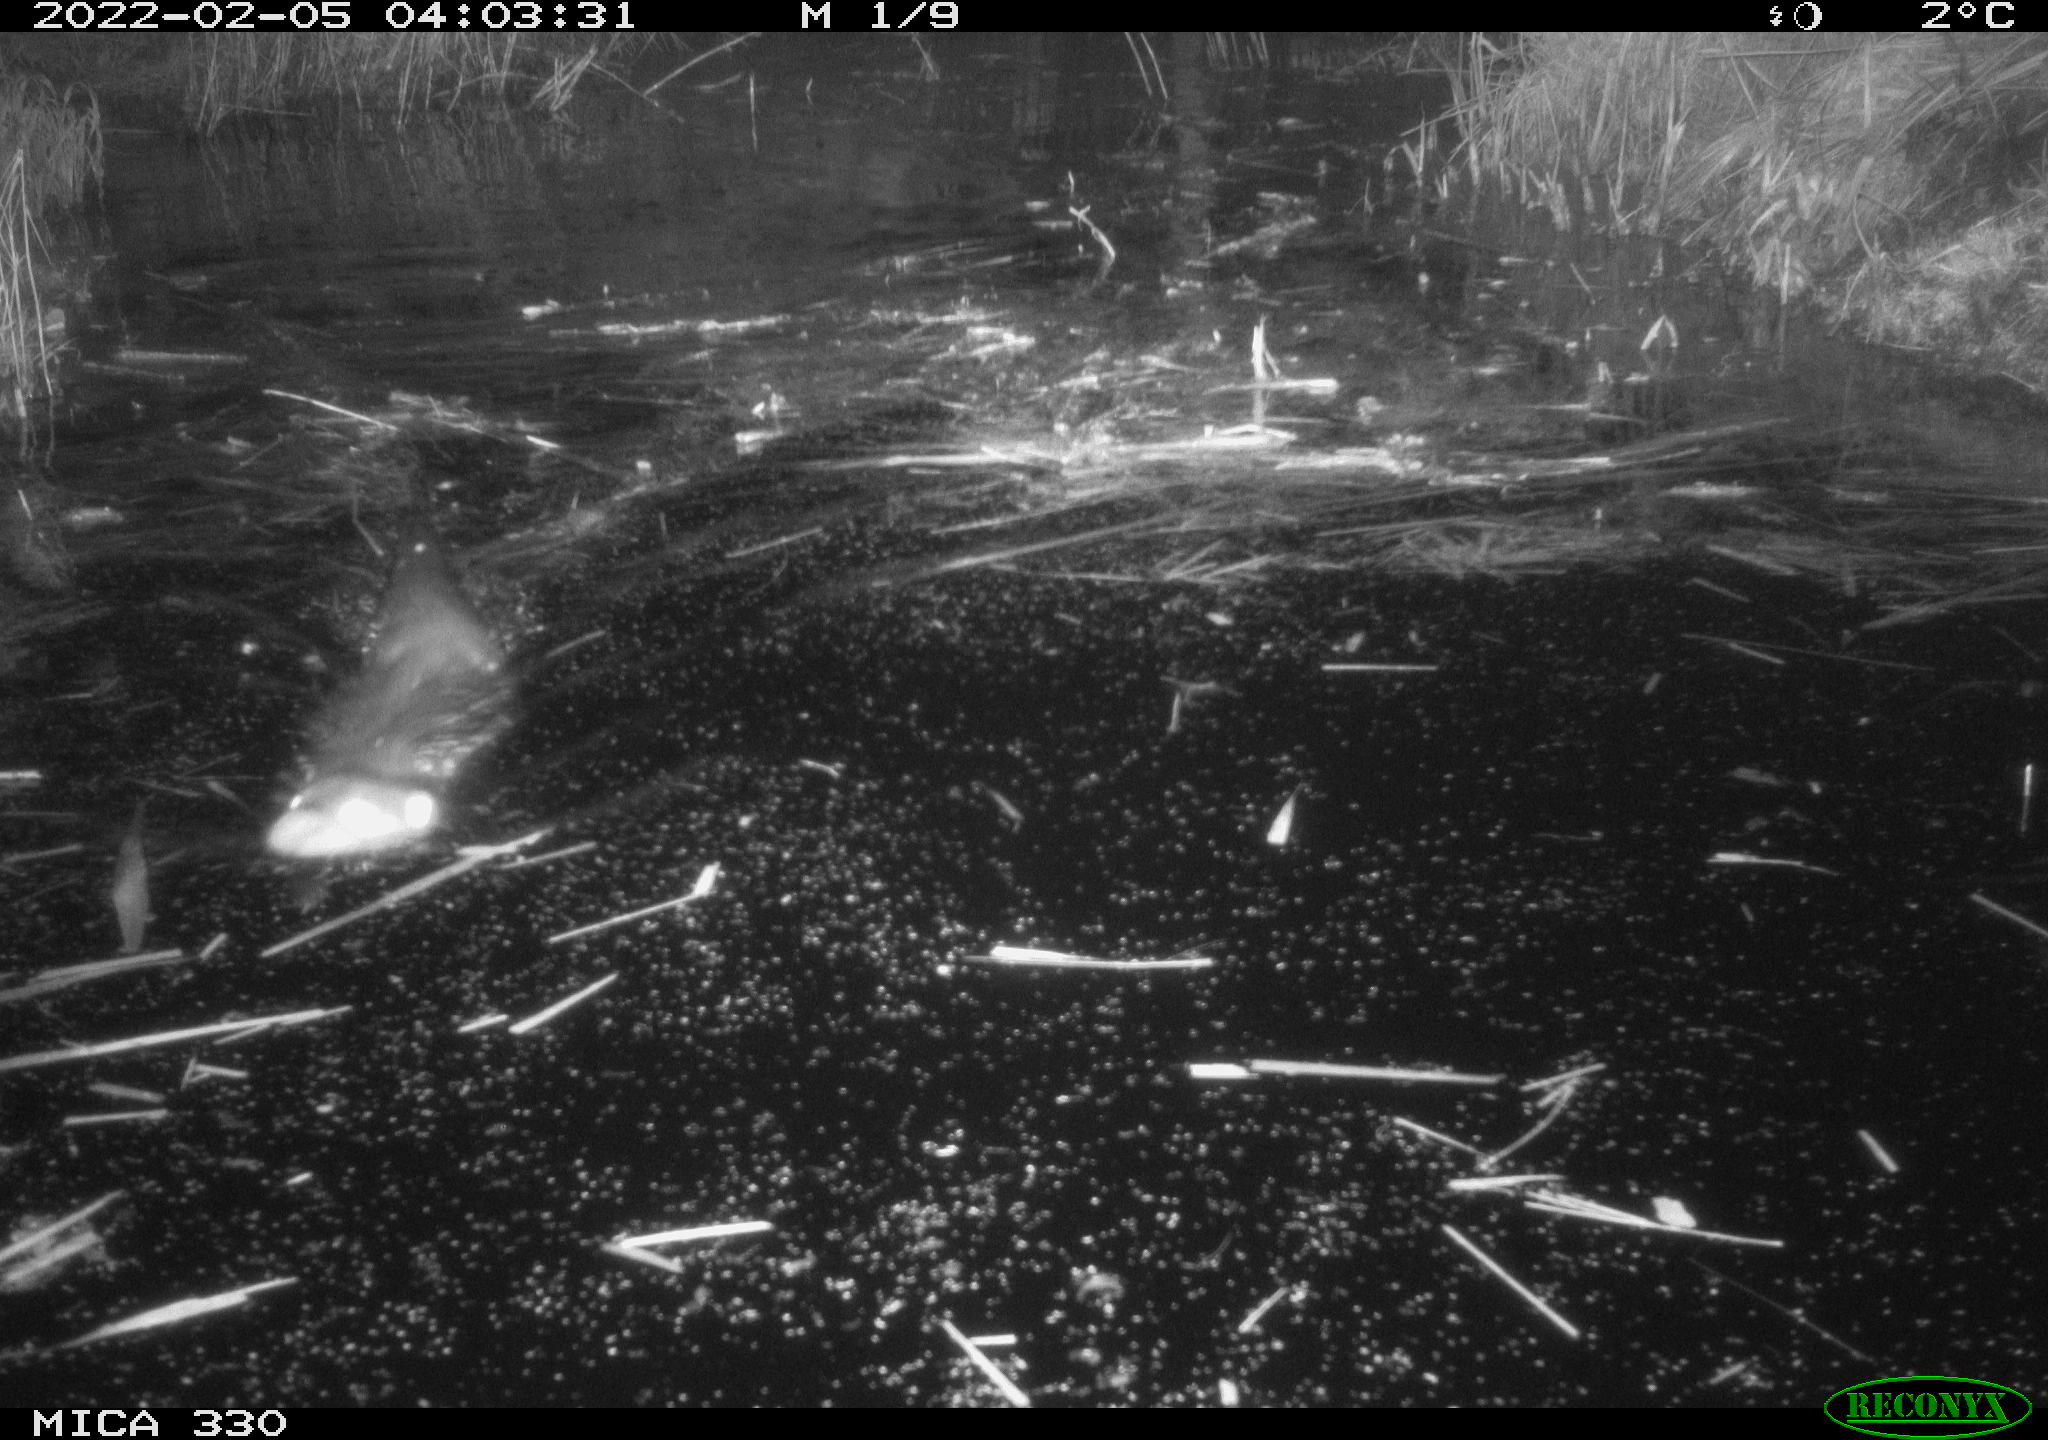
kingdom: Animalia
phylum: Chordata
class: Mammalia
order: Carnivora
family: Mustelidae
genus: Lutra
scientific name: Lutra lutra
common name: European otter
